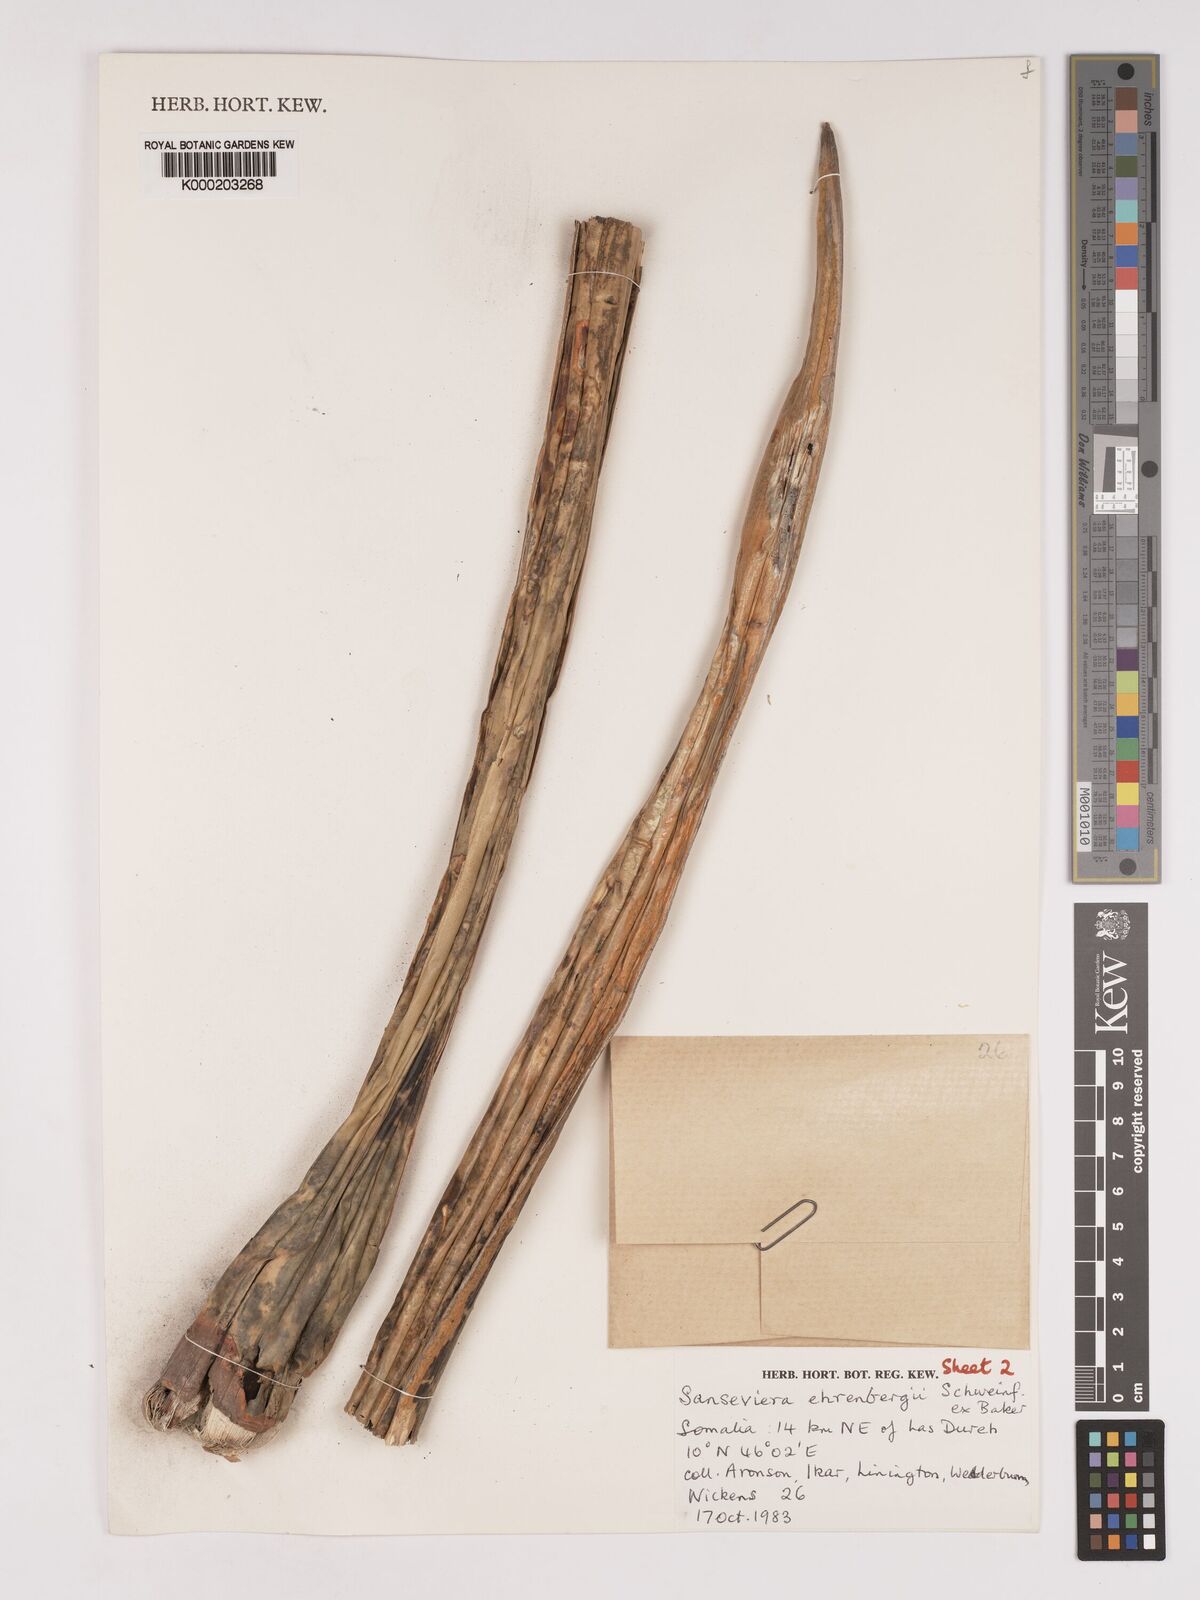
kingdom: Plantae
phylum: Tracheophyta
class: Liliopsida
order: Asparagales
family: Asparagaceae
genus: Dracaena
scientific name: Dracaena hanningtonii
